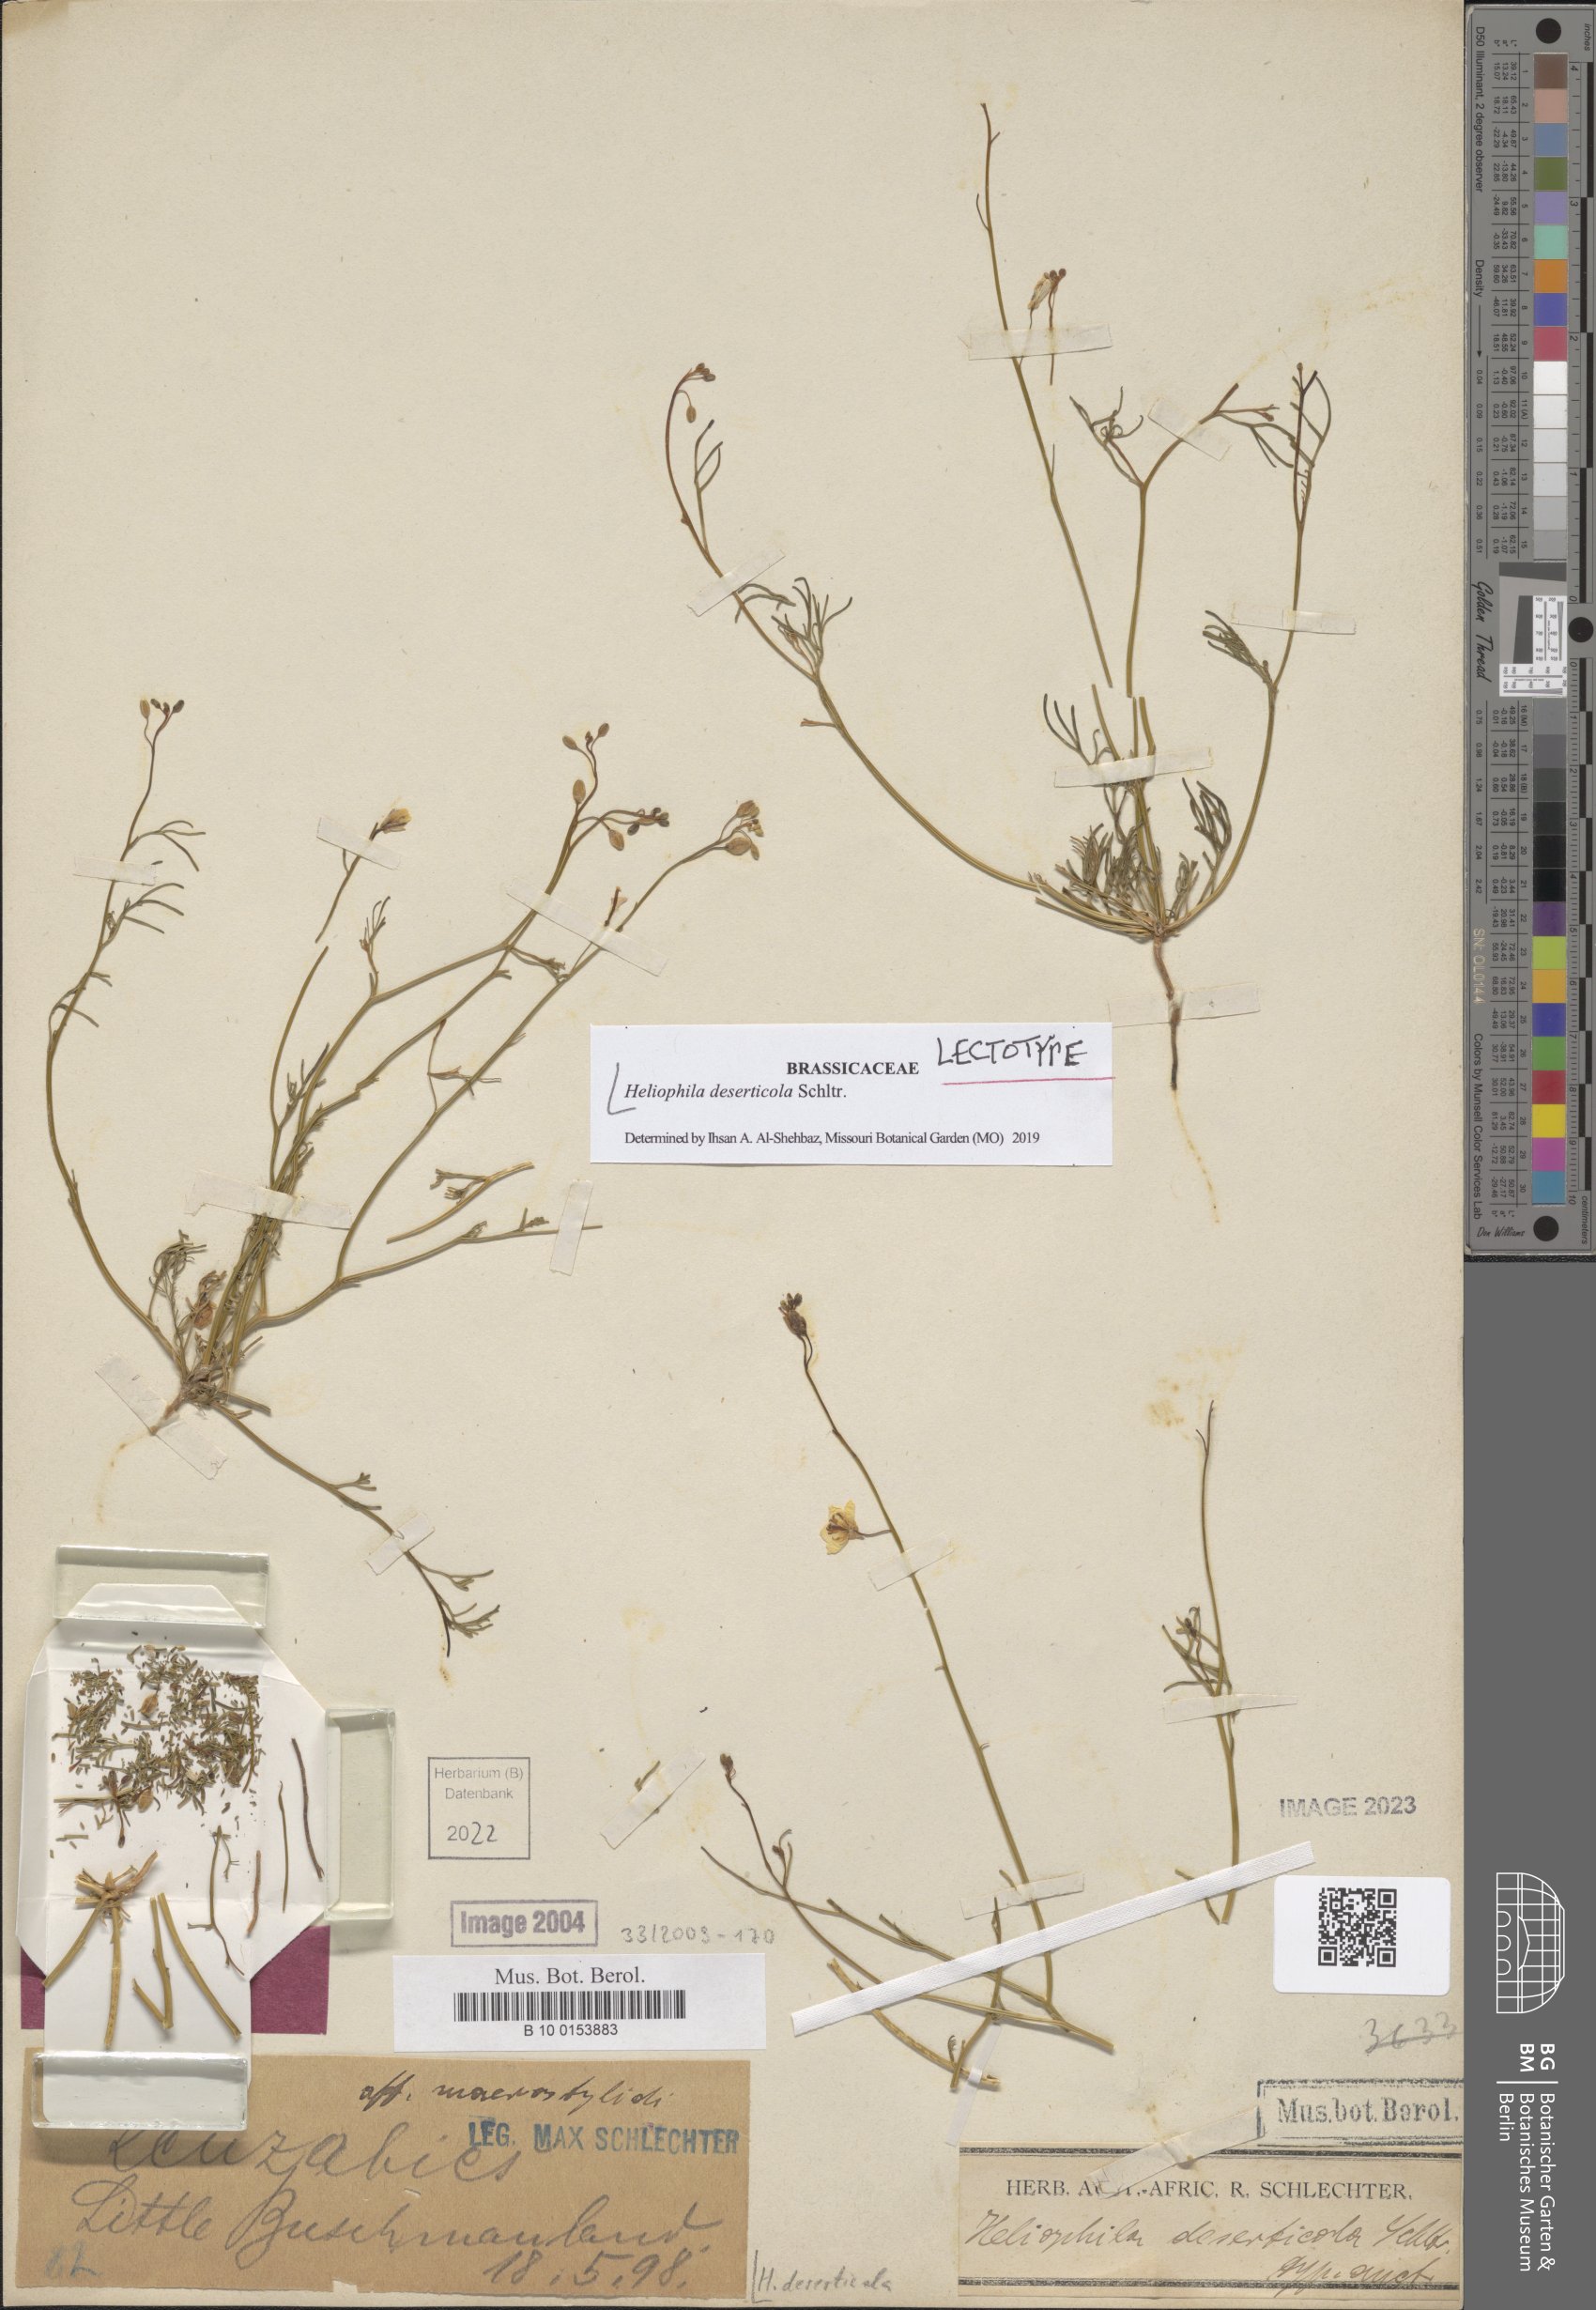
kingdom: Plantae
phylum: Tracheophyta
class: Magnoliopsida
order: Brassicales
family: Brassicaceae
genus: Heliophila
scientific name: Heliophila deserticola
